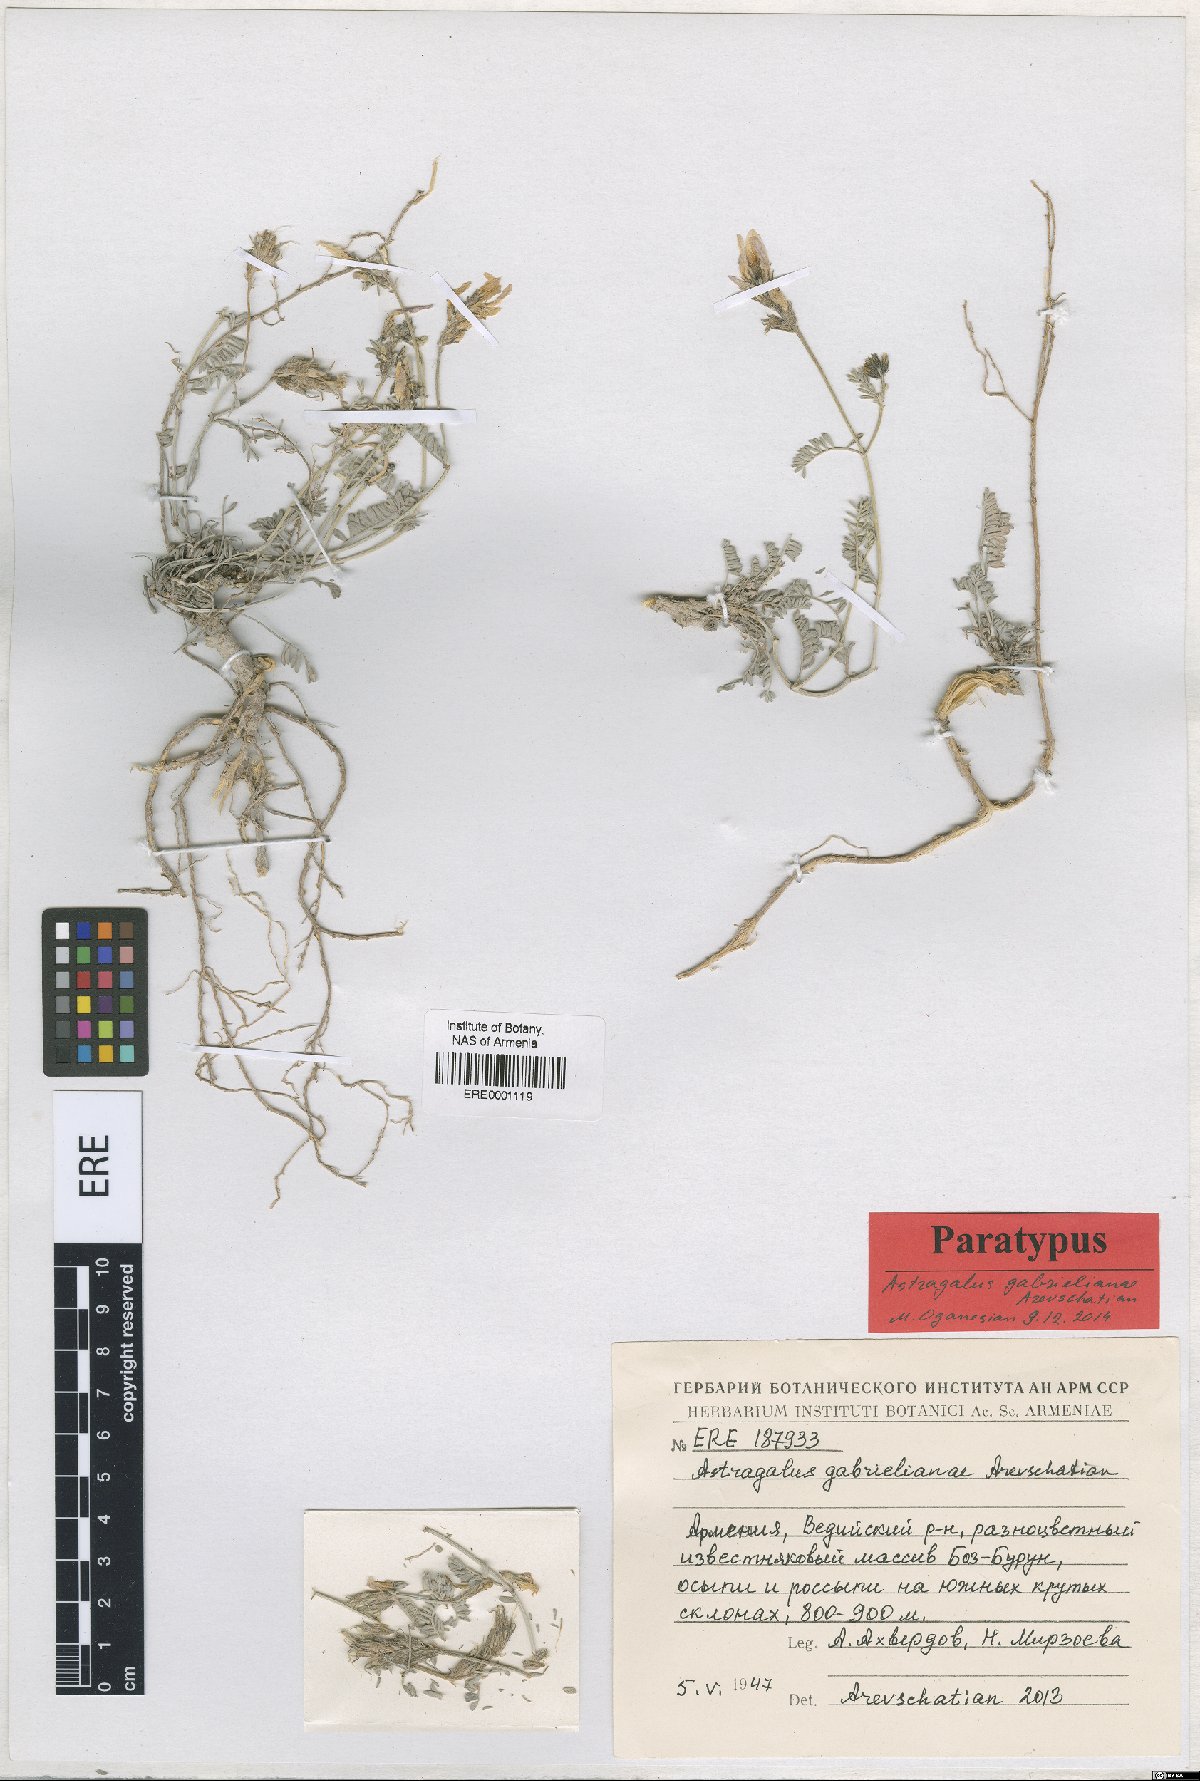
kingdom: Plantae
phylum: Tracheophyta
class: Magnoliopsida
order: Fabales
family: Fabaceae
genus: Astragalus
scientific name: Astragalus gabrelianae
